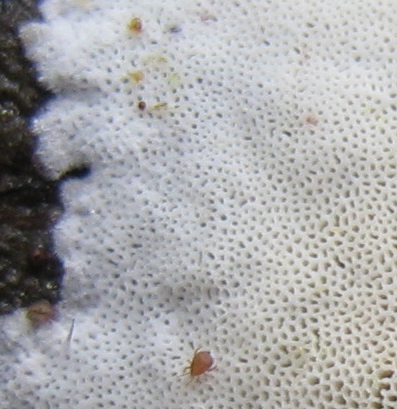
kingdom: Fungi
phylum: Basidiomycota
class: Agaricomycetes
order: Polyporales
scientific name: Polyporales
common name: poresvampordenen
